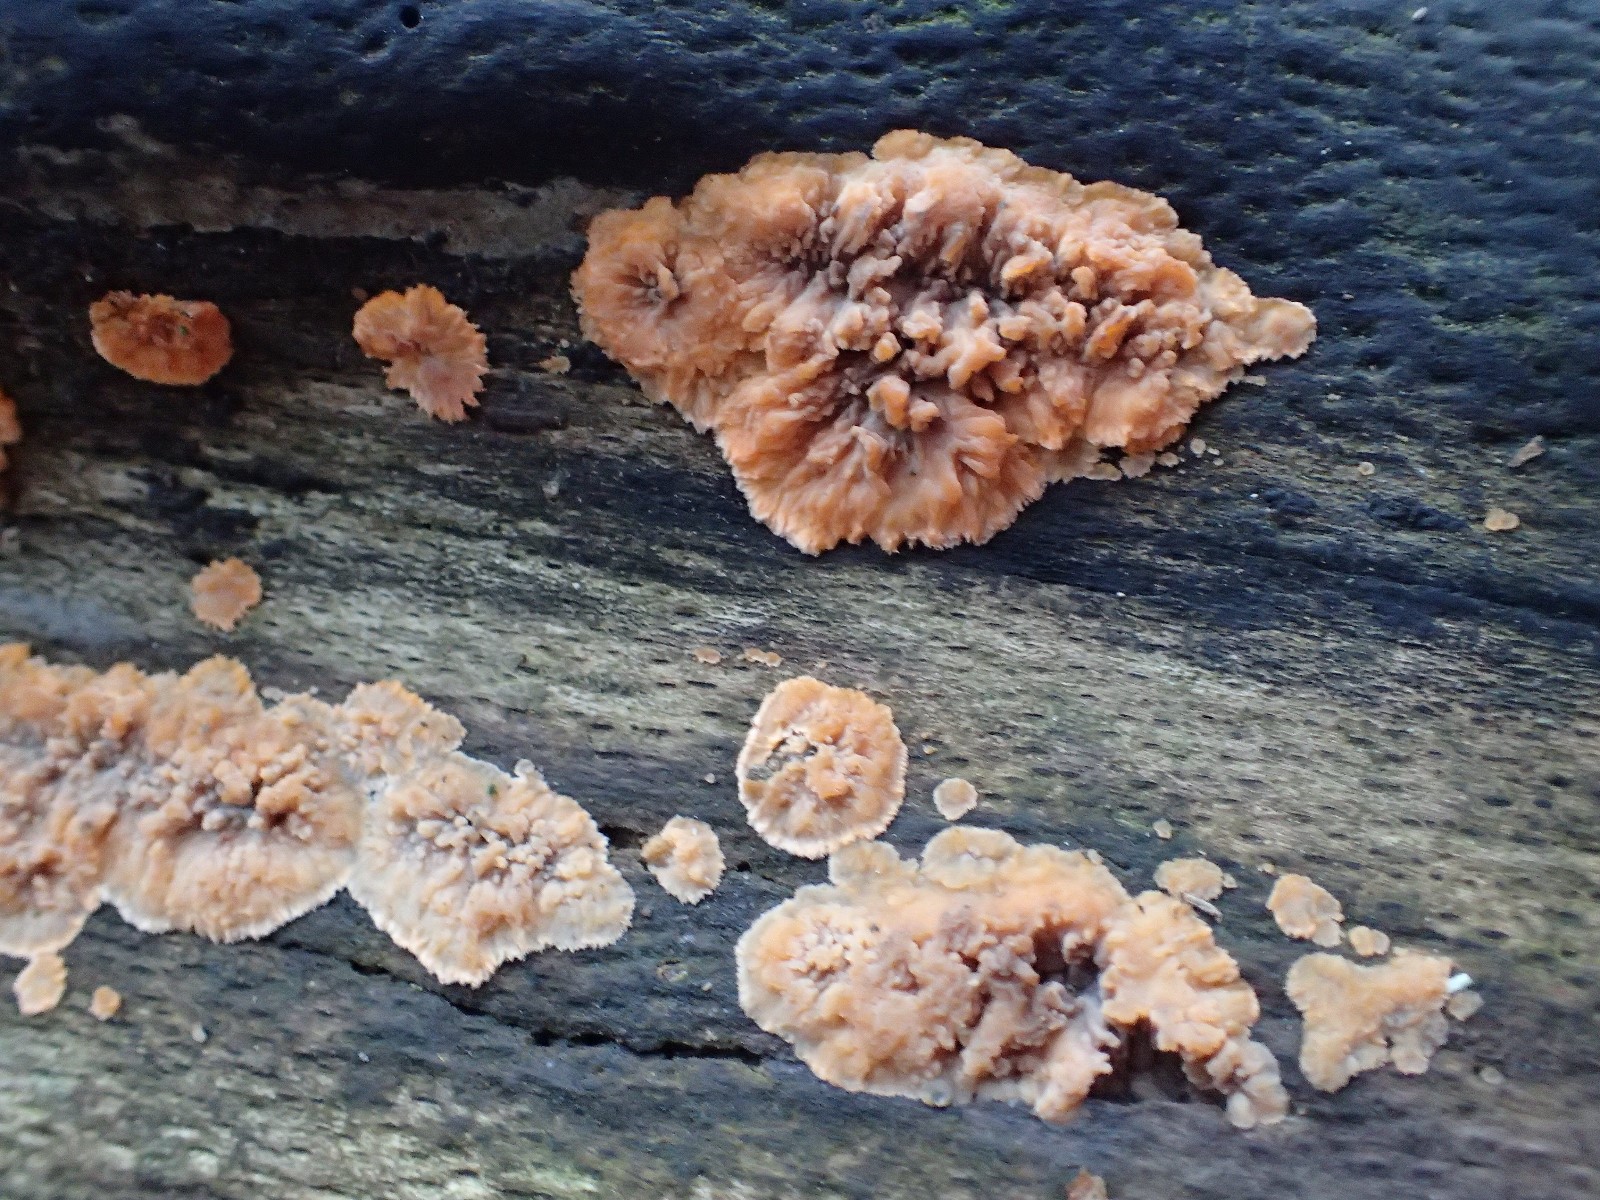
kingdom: Fungi
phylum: Basidiomycota
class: Agaricomycetes
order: Polyporales
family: Meruliaceae
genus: Phlebia
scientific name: Phlebia radiata
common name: stråle-åresvamp
